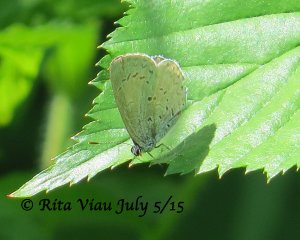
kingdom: Animalia
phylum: Arthropoda
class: Insecta
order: Lepidoptera
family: Lycaenidae
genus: Celastrina
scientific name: Celastrina
